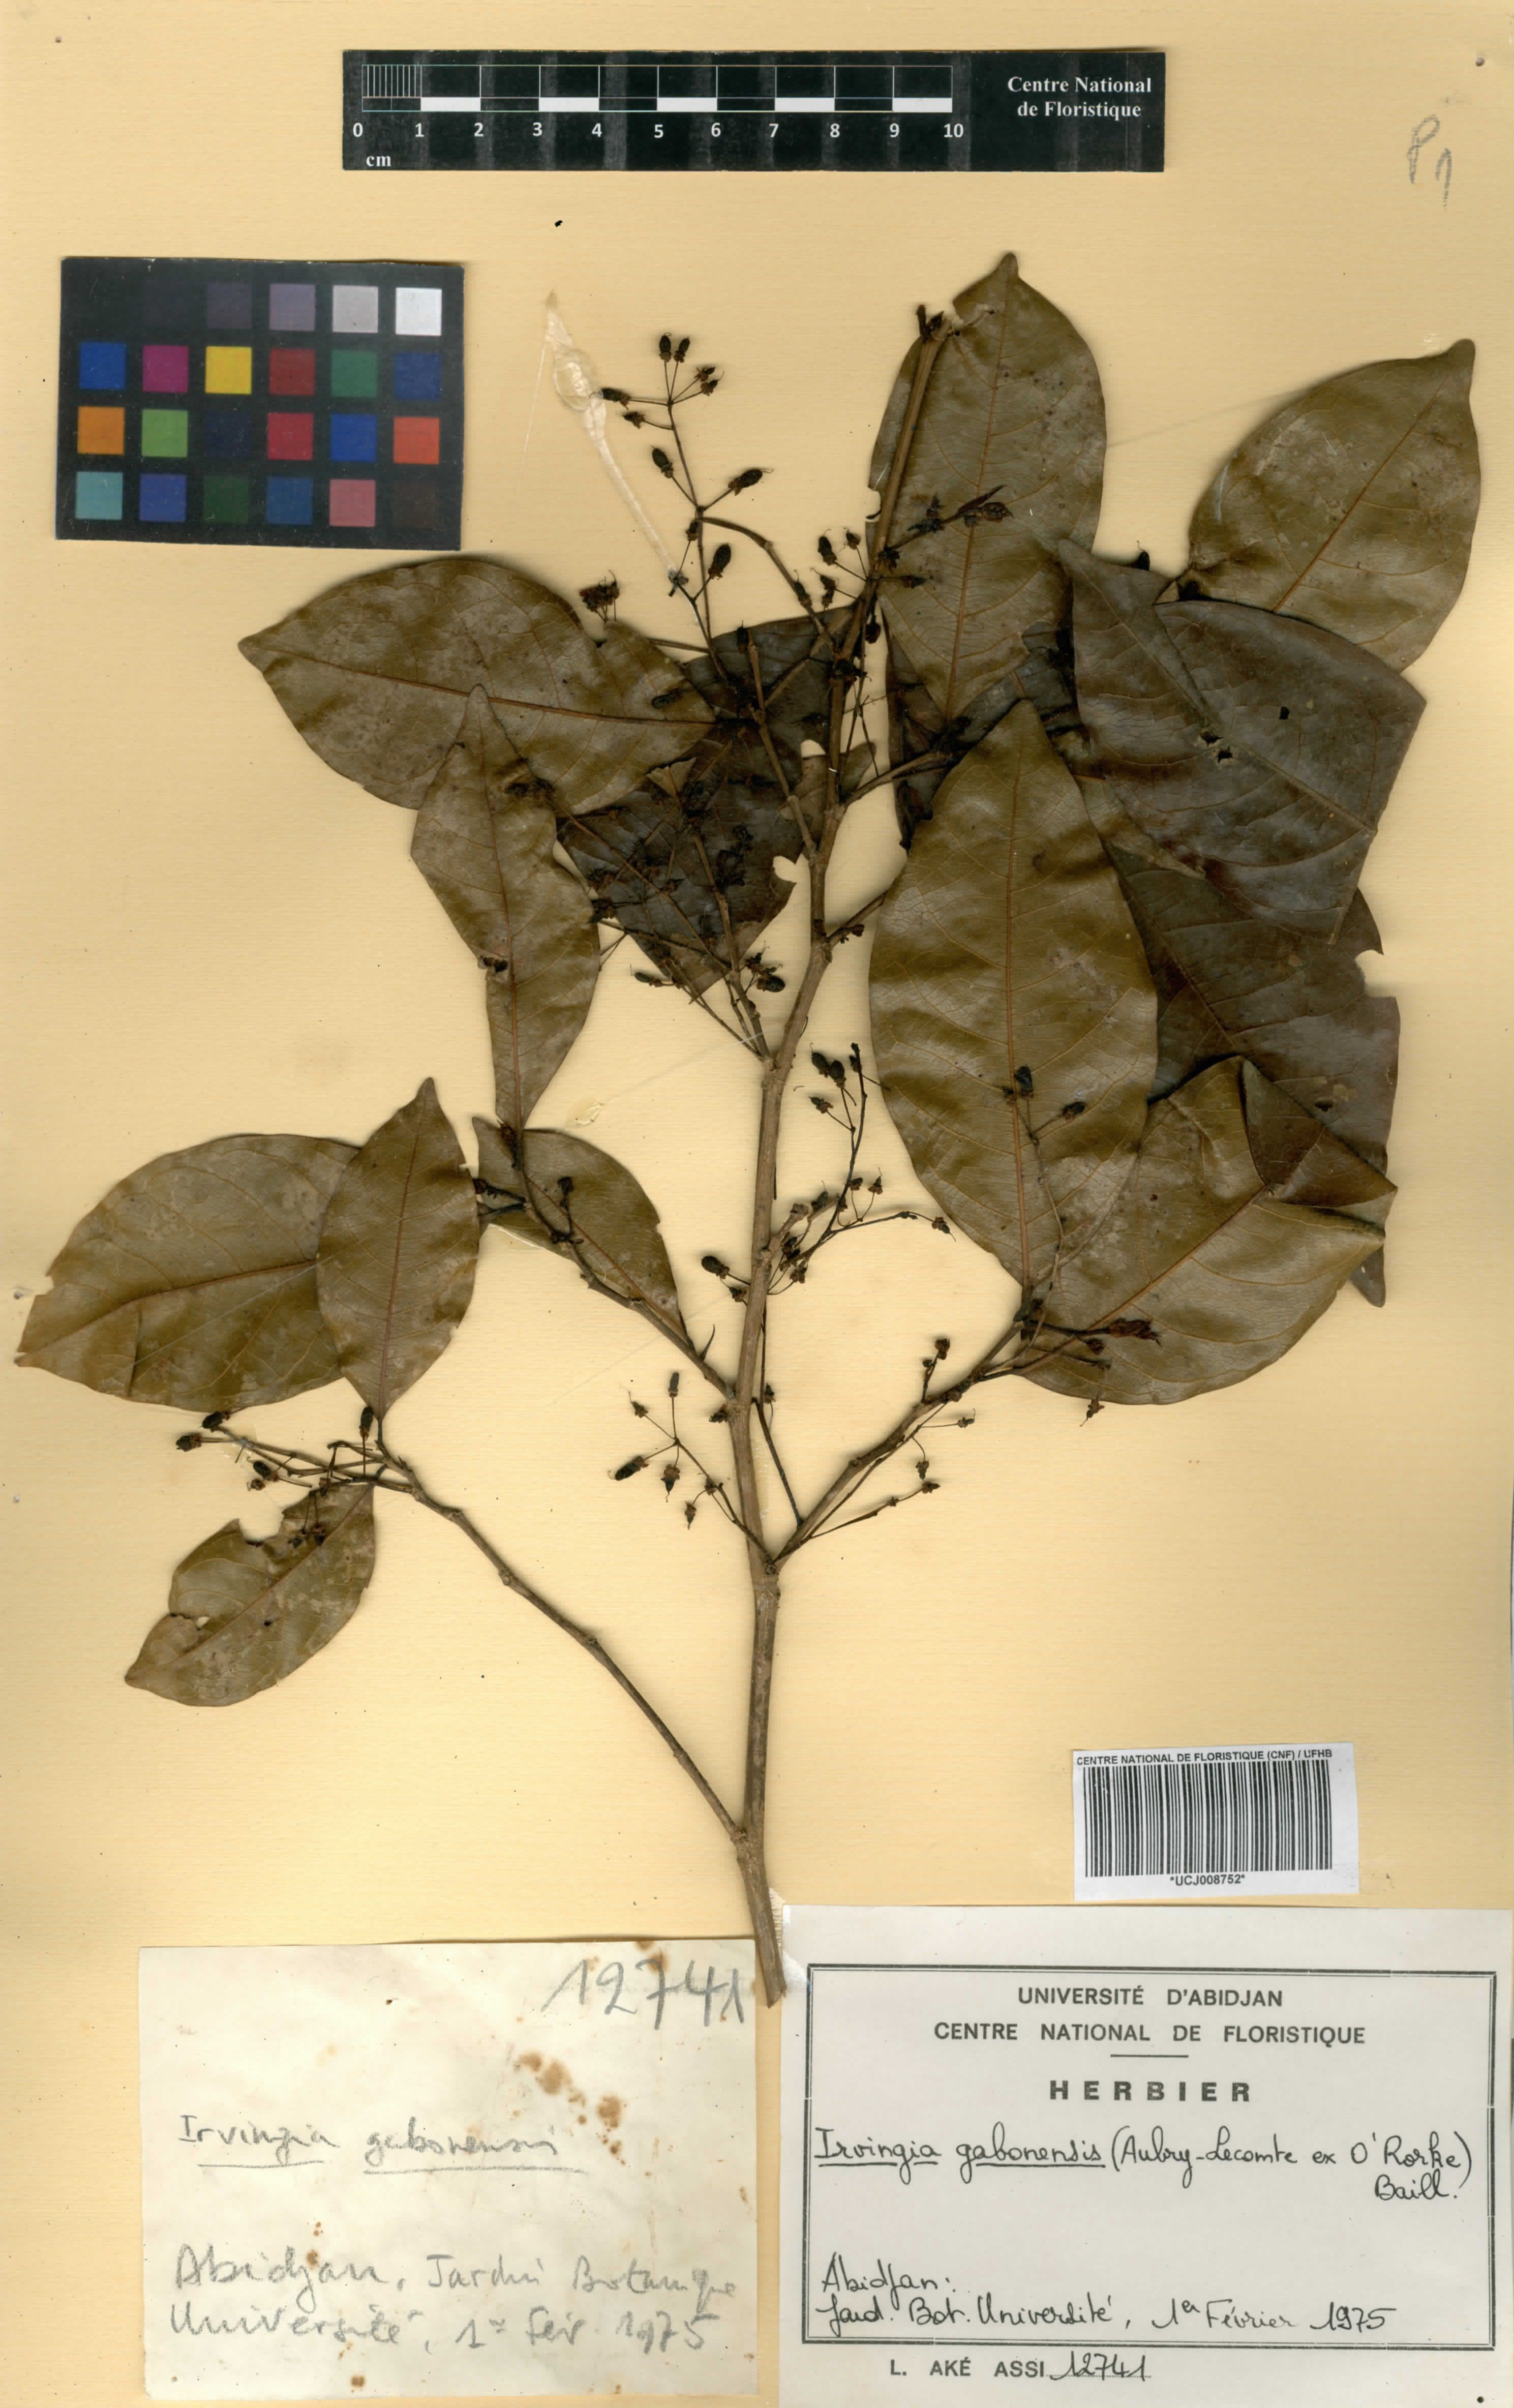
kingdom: Plantae
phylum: Tracheophyta
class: Magnoliopsida
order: Malpighiales
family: Irvingiaceae
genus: Irvingia
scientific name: Irvingia gabonensis
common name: Rainy season bush-mango
